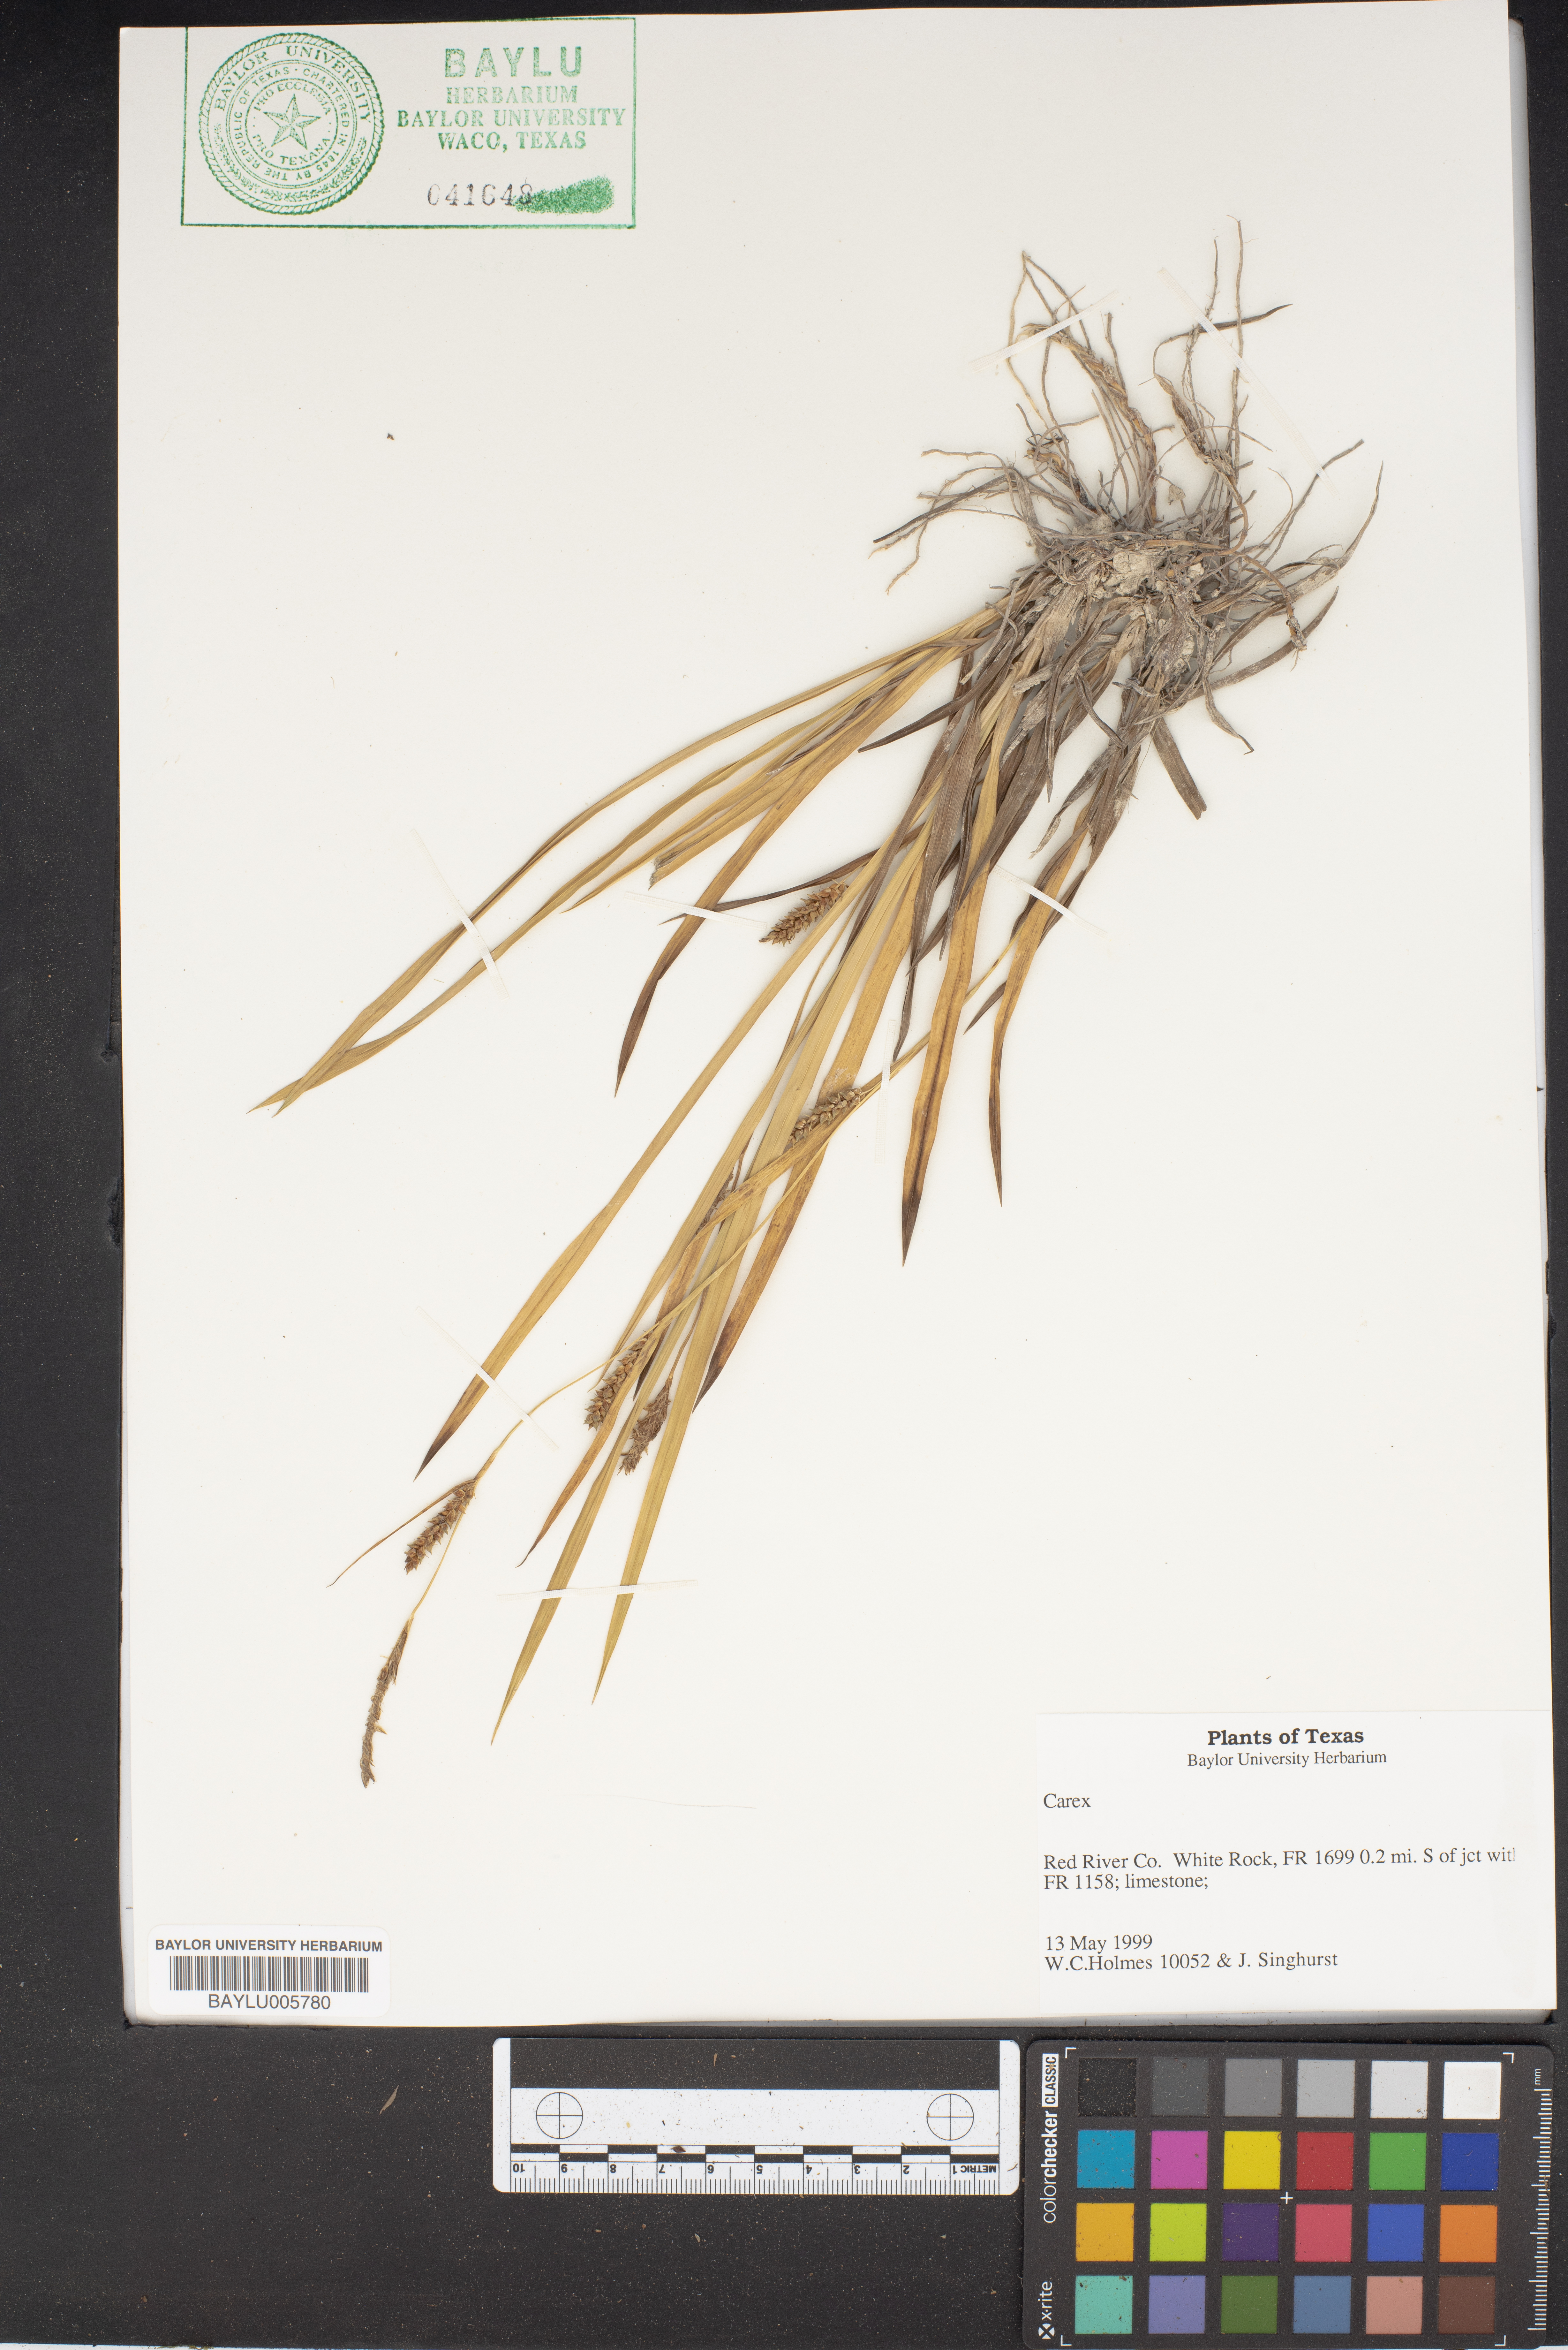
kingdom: Plantae
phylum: Tracheophyta
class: Liliopsida
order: Poales
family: Cyperaceae
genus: Carex
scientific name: Carex
